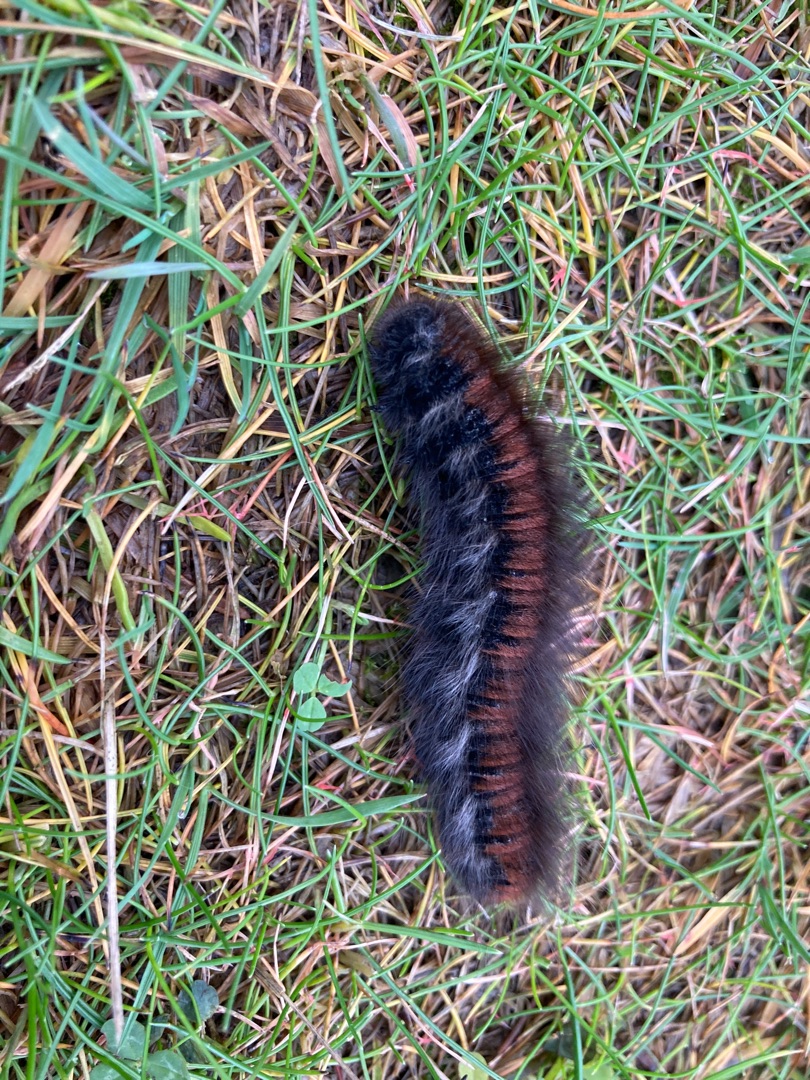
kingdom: Animalia
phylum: Arthropoda
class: Insecta
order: Lepidoptera
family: Lasiocampidae
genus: Macrothylacia
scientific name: Macrothylacia rubi
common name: Brombærspinder
